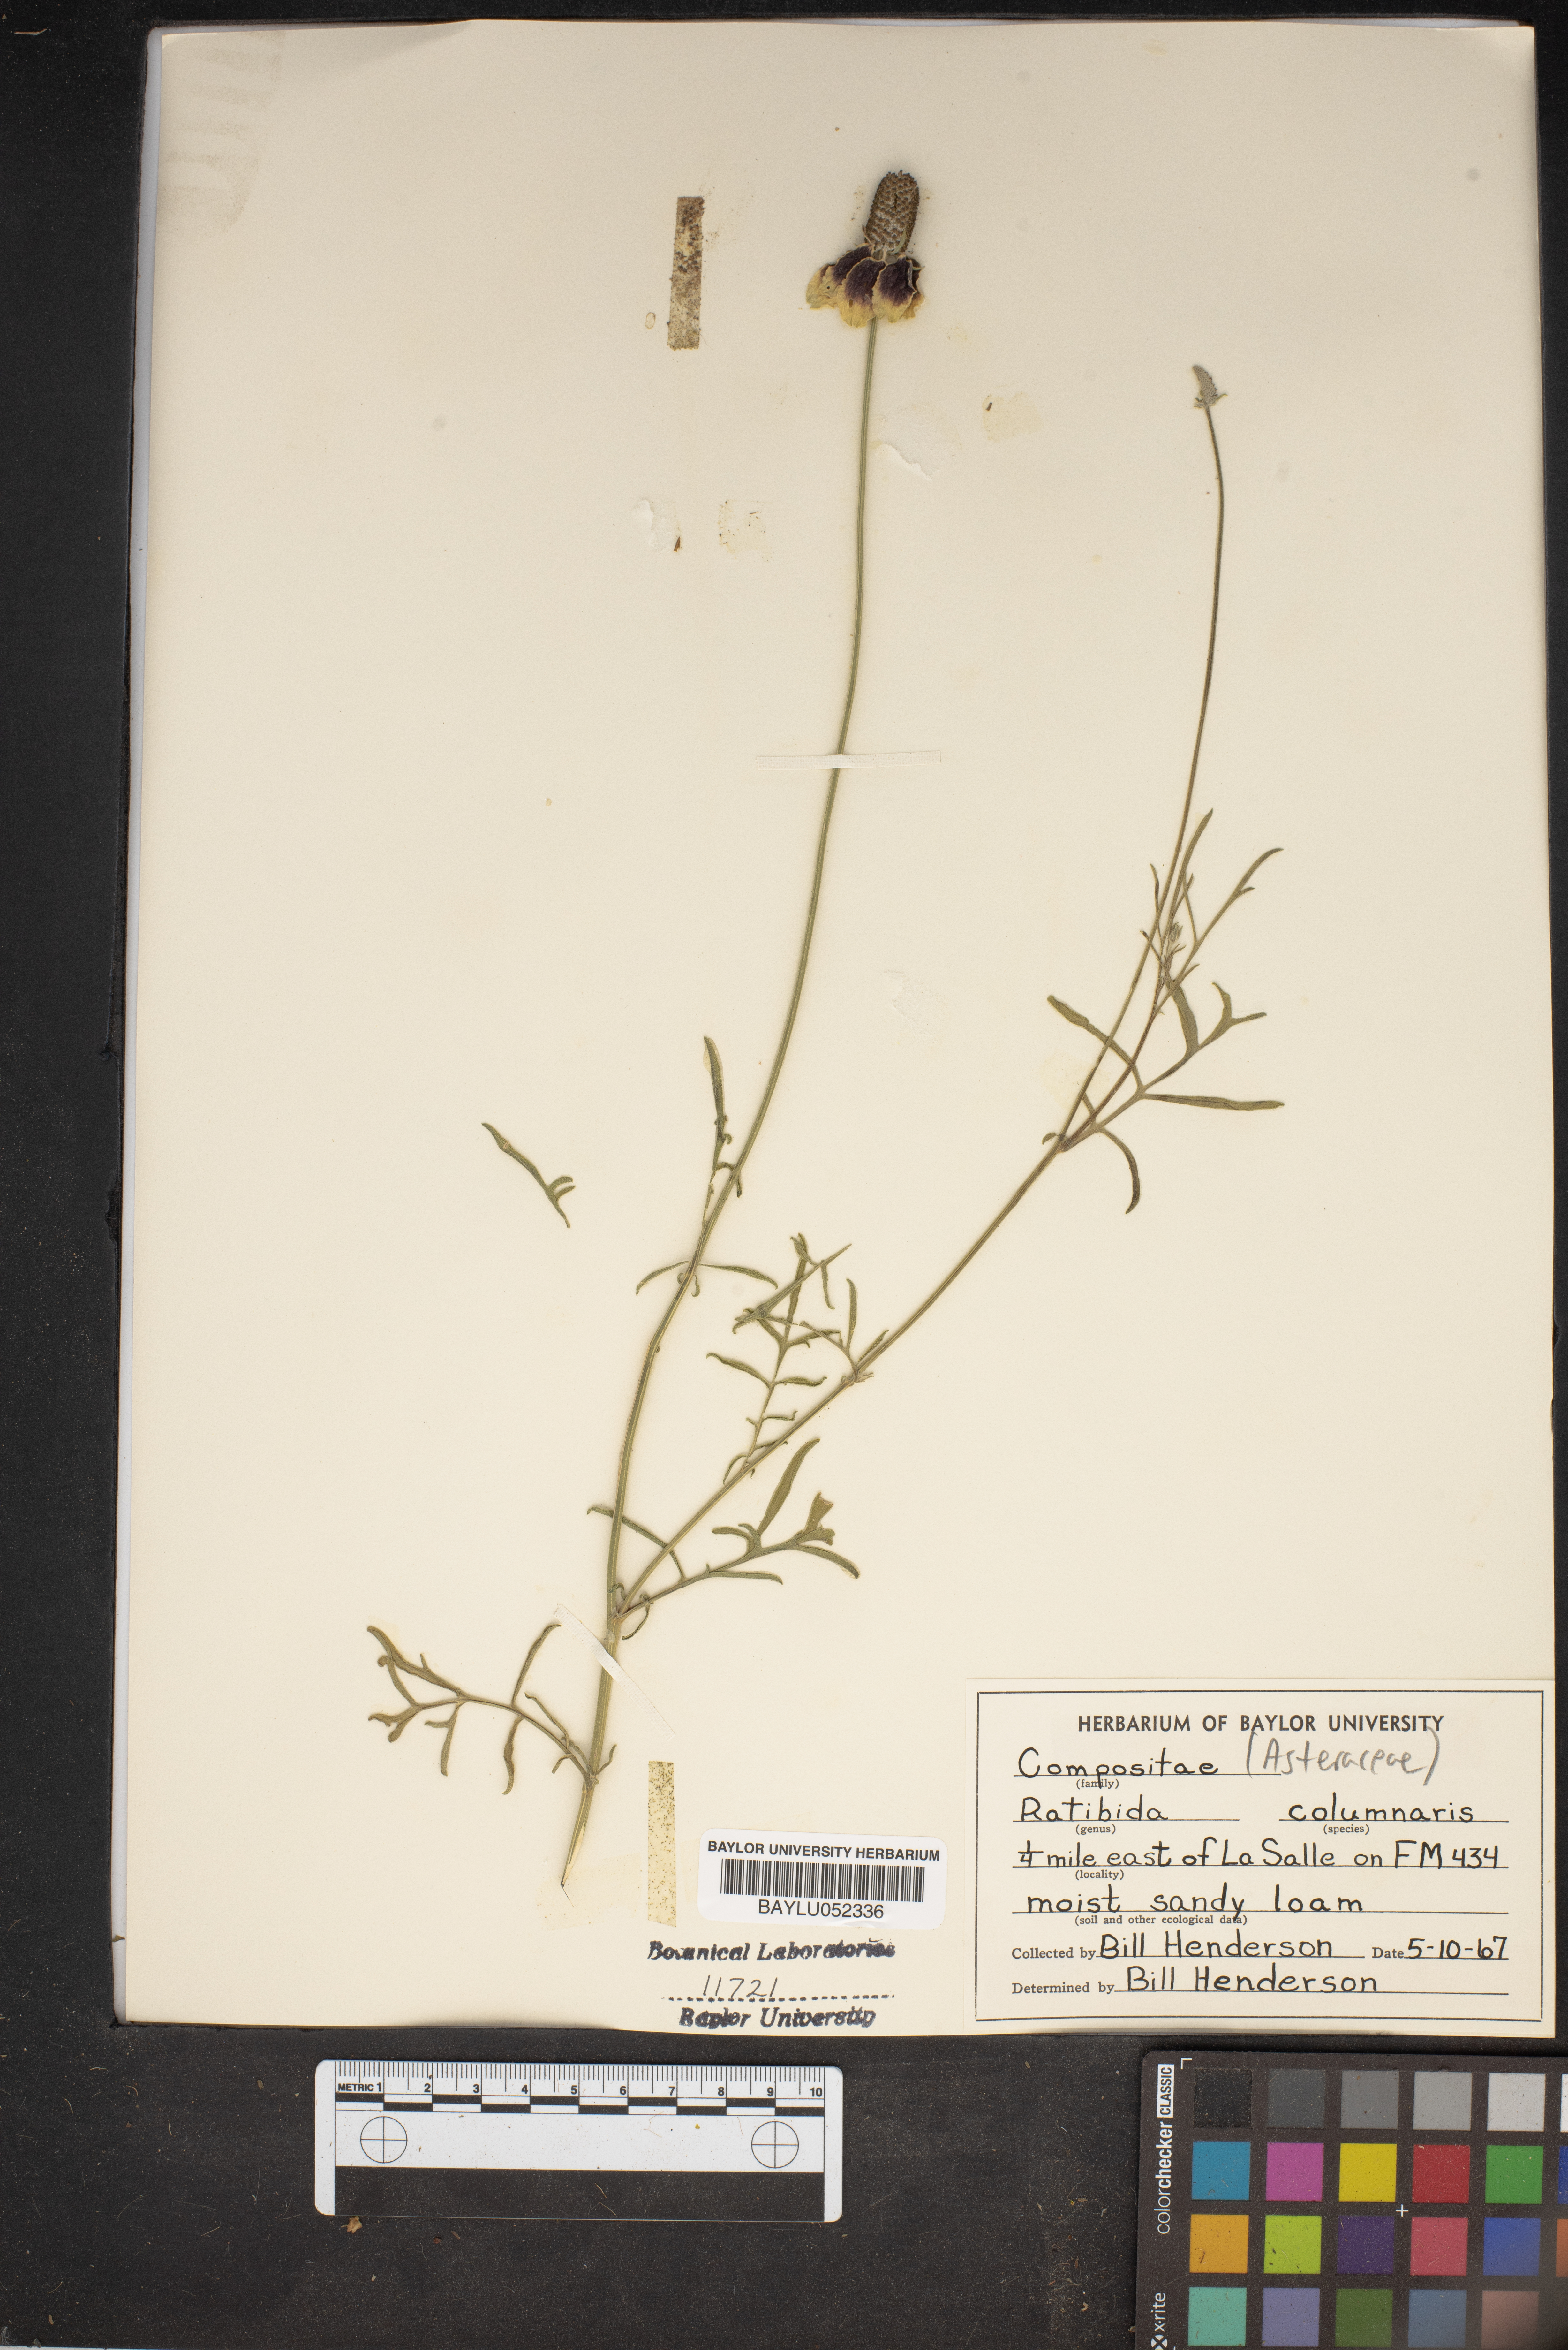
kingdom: Plantae
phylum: Tracheophyta
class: Magnoliopsida
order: Asterales
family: Asteraceae
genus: Ratibida
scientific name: Ratibida columnifera
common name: Prairie coneflower
